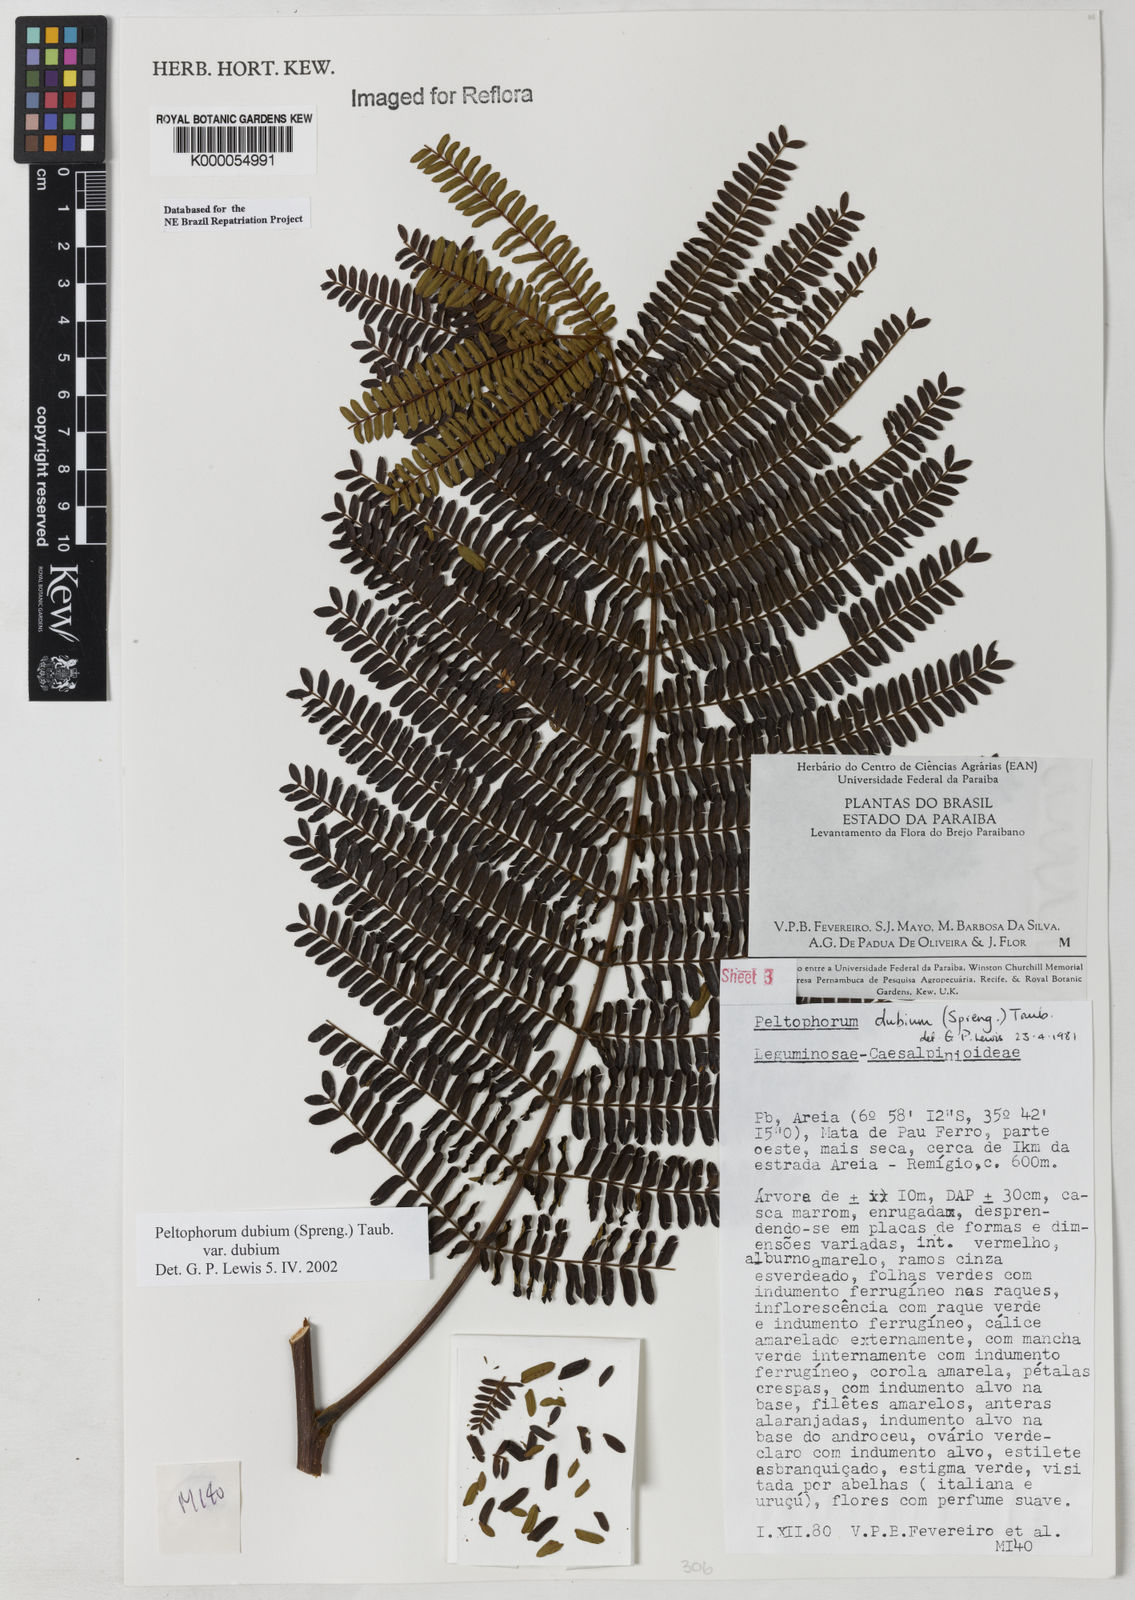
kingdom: Plantae
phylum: Tracheophyta
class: Magnoliopsida
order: Fabales
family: Fabaceae
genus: Peltophorum
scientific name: Peltophorum dubium
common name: Horsebush
